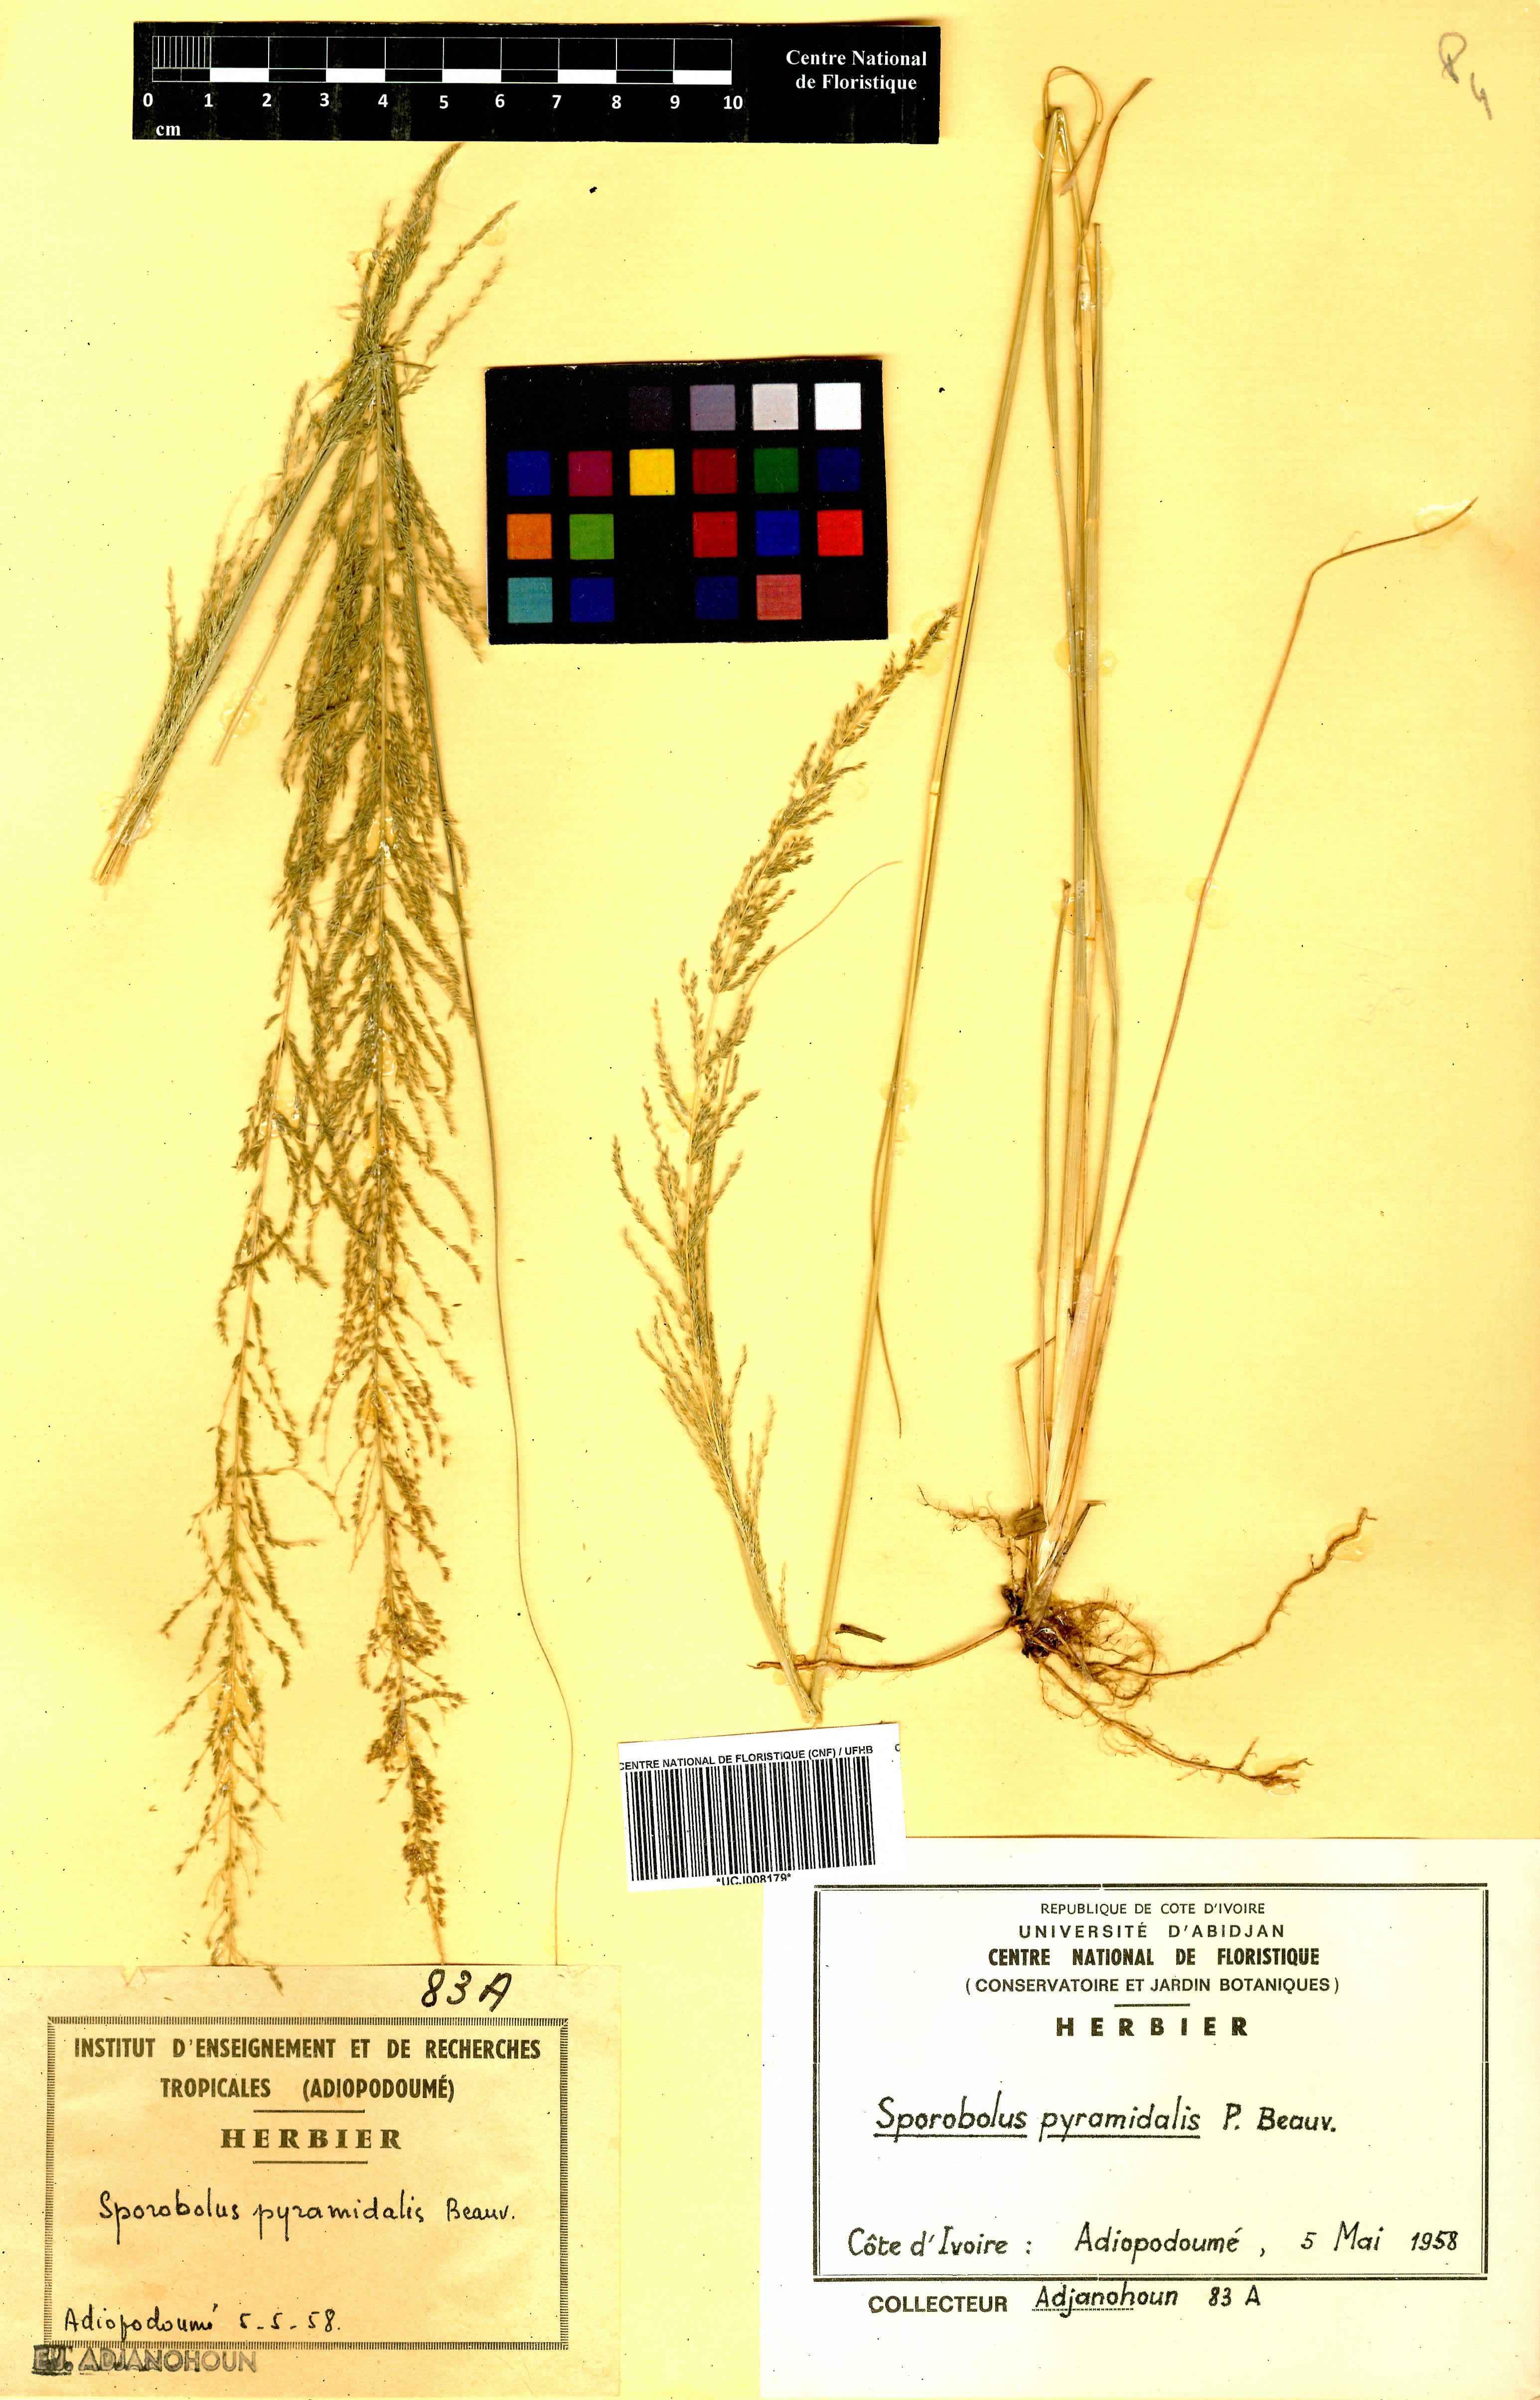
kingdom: Plantae
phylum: Tracheophyta
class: Liliopsida
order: Poales
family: Poaceae
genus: Sporobolus
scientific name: Sporobolus pyramidalis
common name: West indian dropseed
